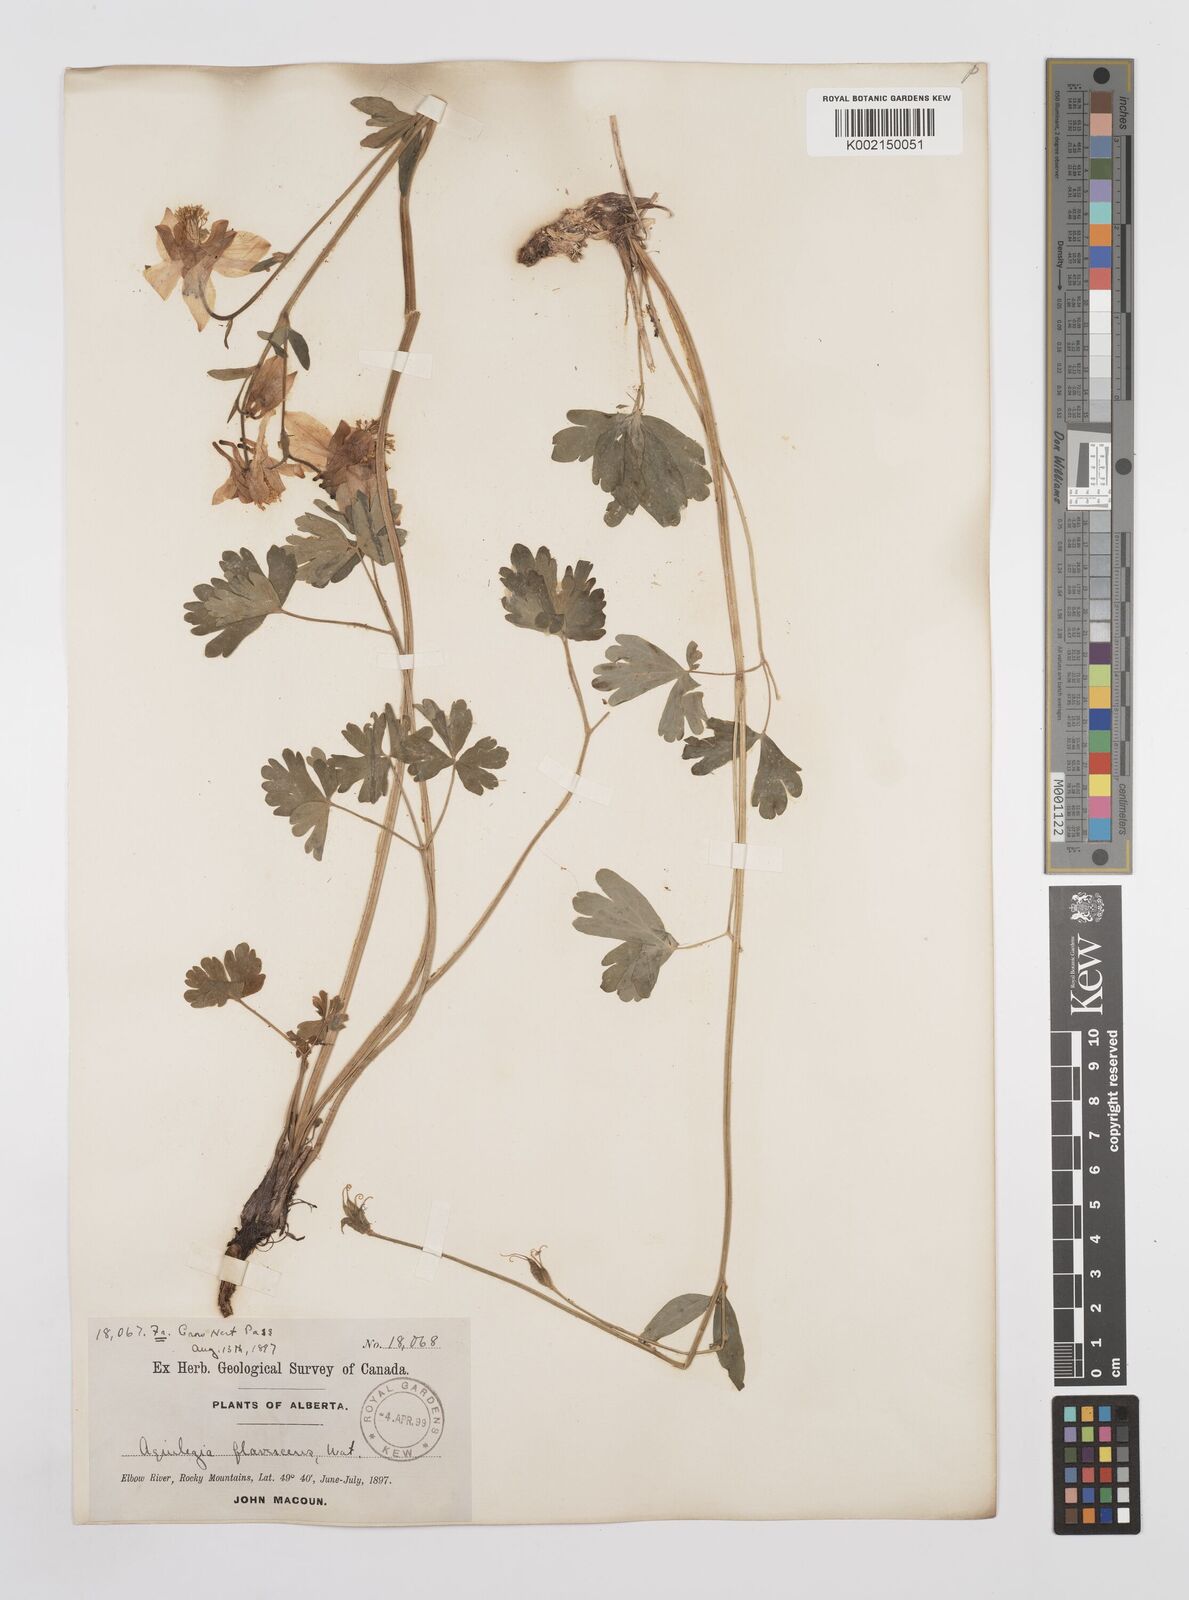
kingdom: Plantae
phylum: Tracheophyta
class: Magnoliopsida
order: Ranunculales
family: Ranunculaceae
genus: Aquilegia
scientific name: Aquilegia flavescens
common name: Yellow columbine
